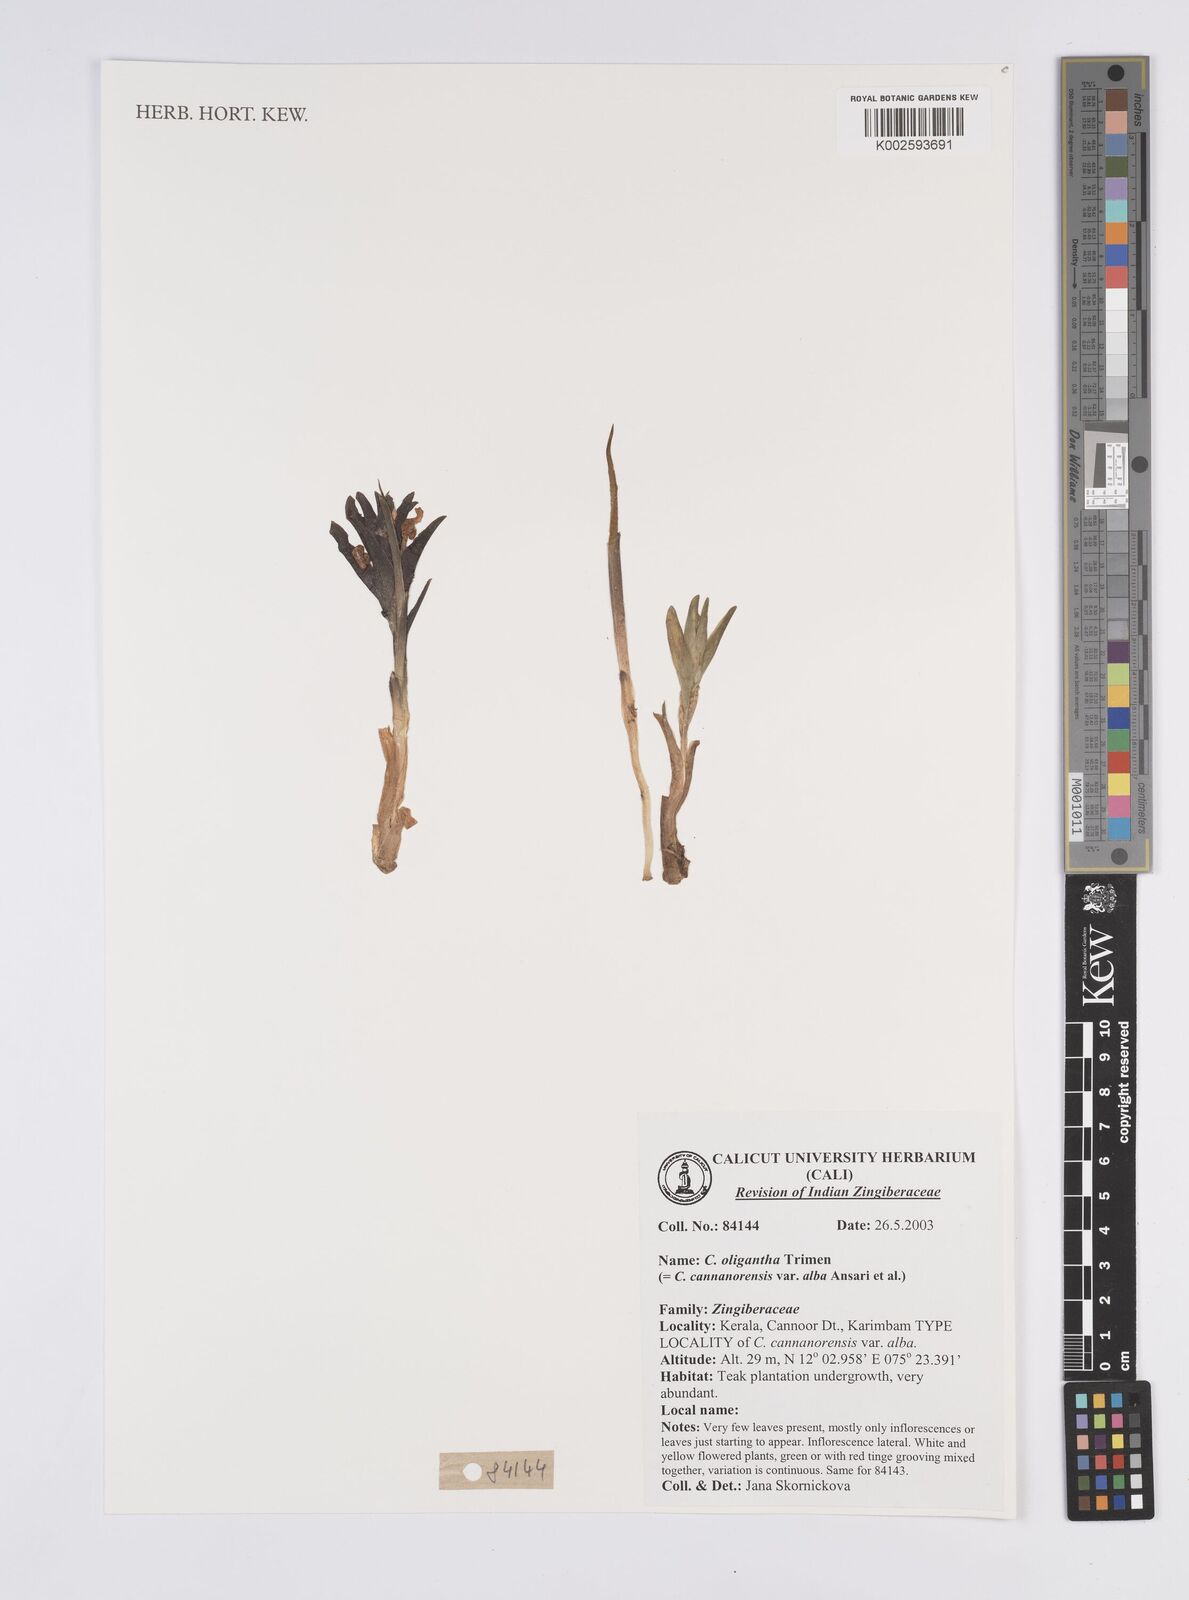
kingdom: Plantae
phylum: Tracheophyta
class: Liliopsida
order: Zingiberales
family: Zingiberaceae
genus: Curcuma
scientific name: Curcuma oligantha
